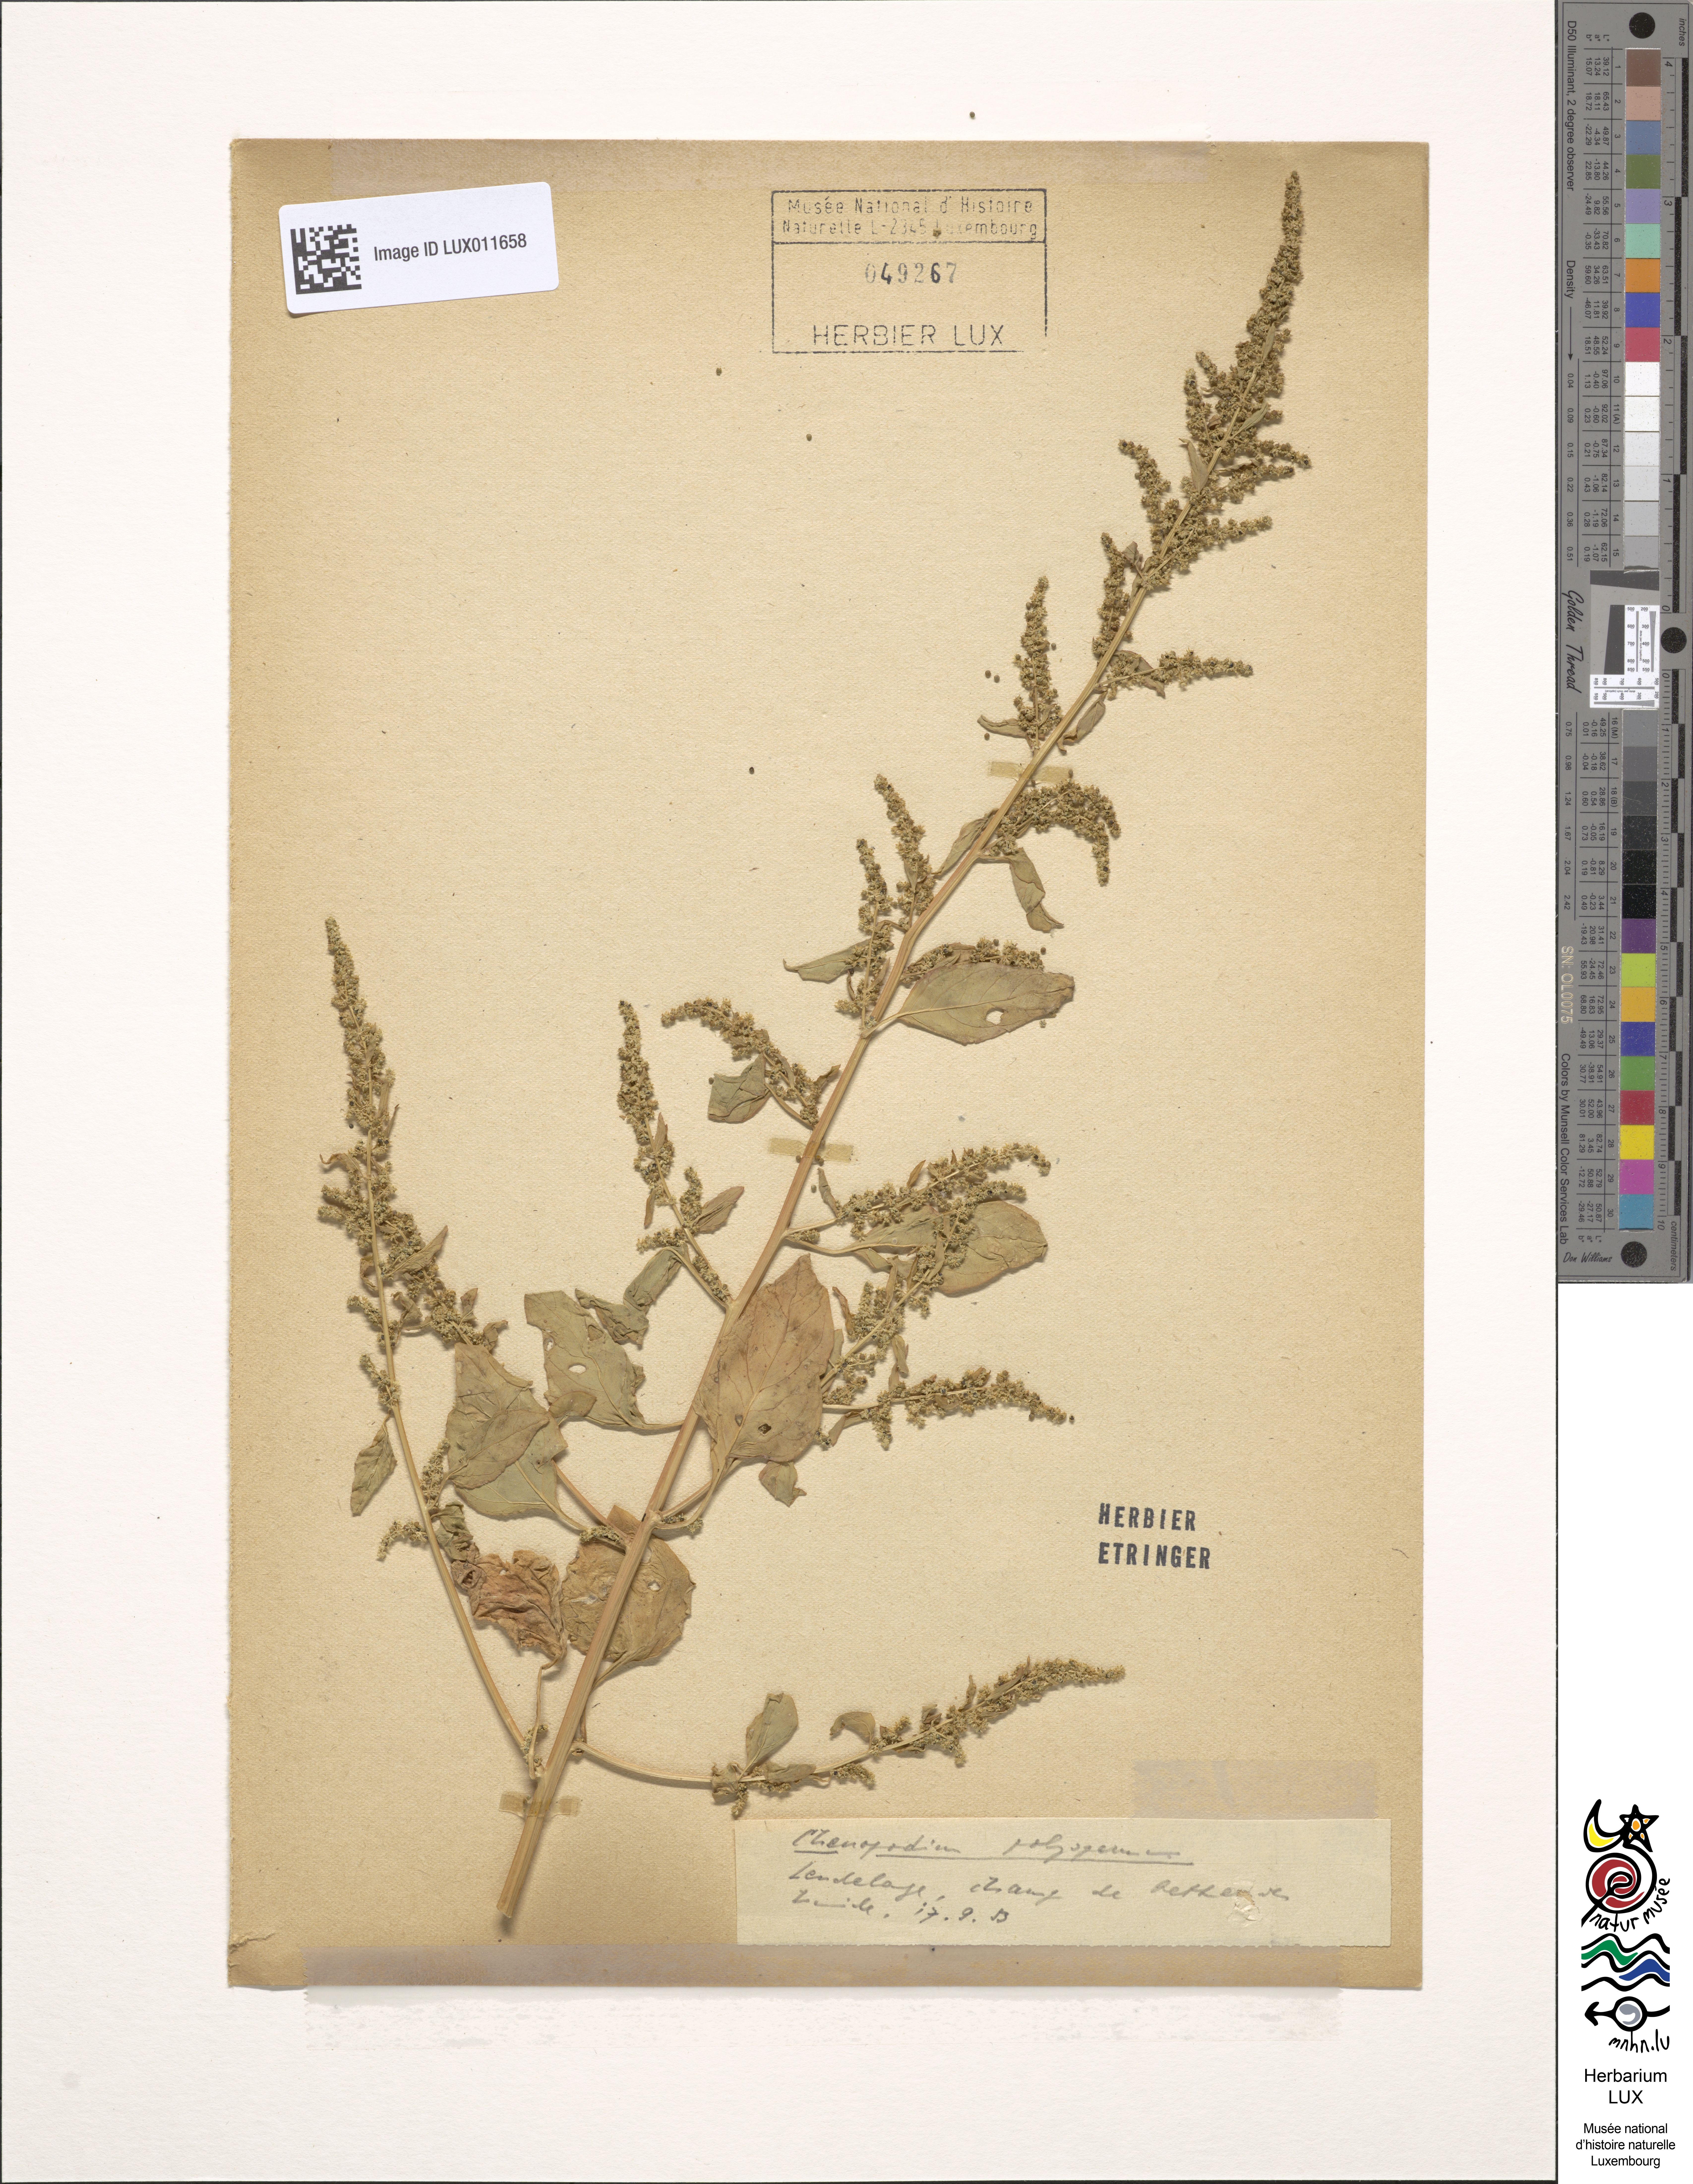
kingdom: Plantae
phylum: Tracheophyta
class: Magnoliopsida
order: Caryophyllales
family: Amaranthaceae
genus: Lipandra
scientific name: Lipandra polysperma
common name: Many-seed goosefoot
